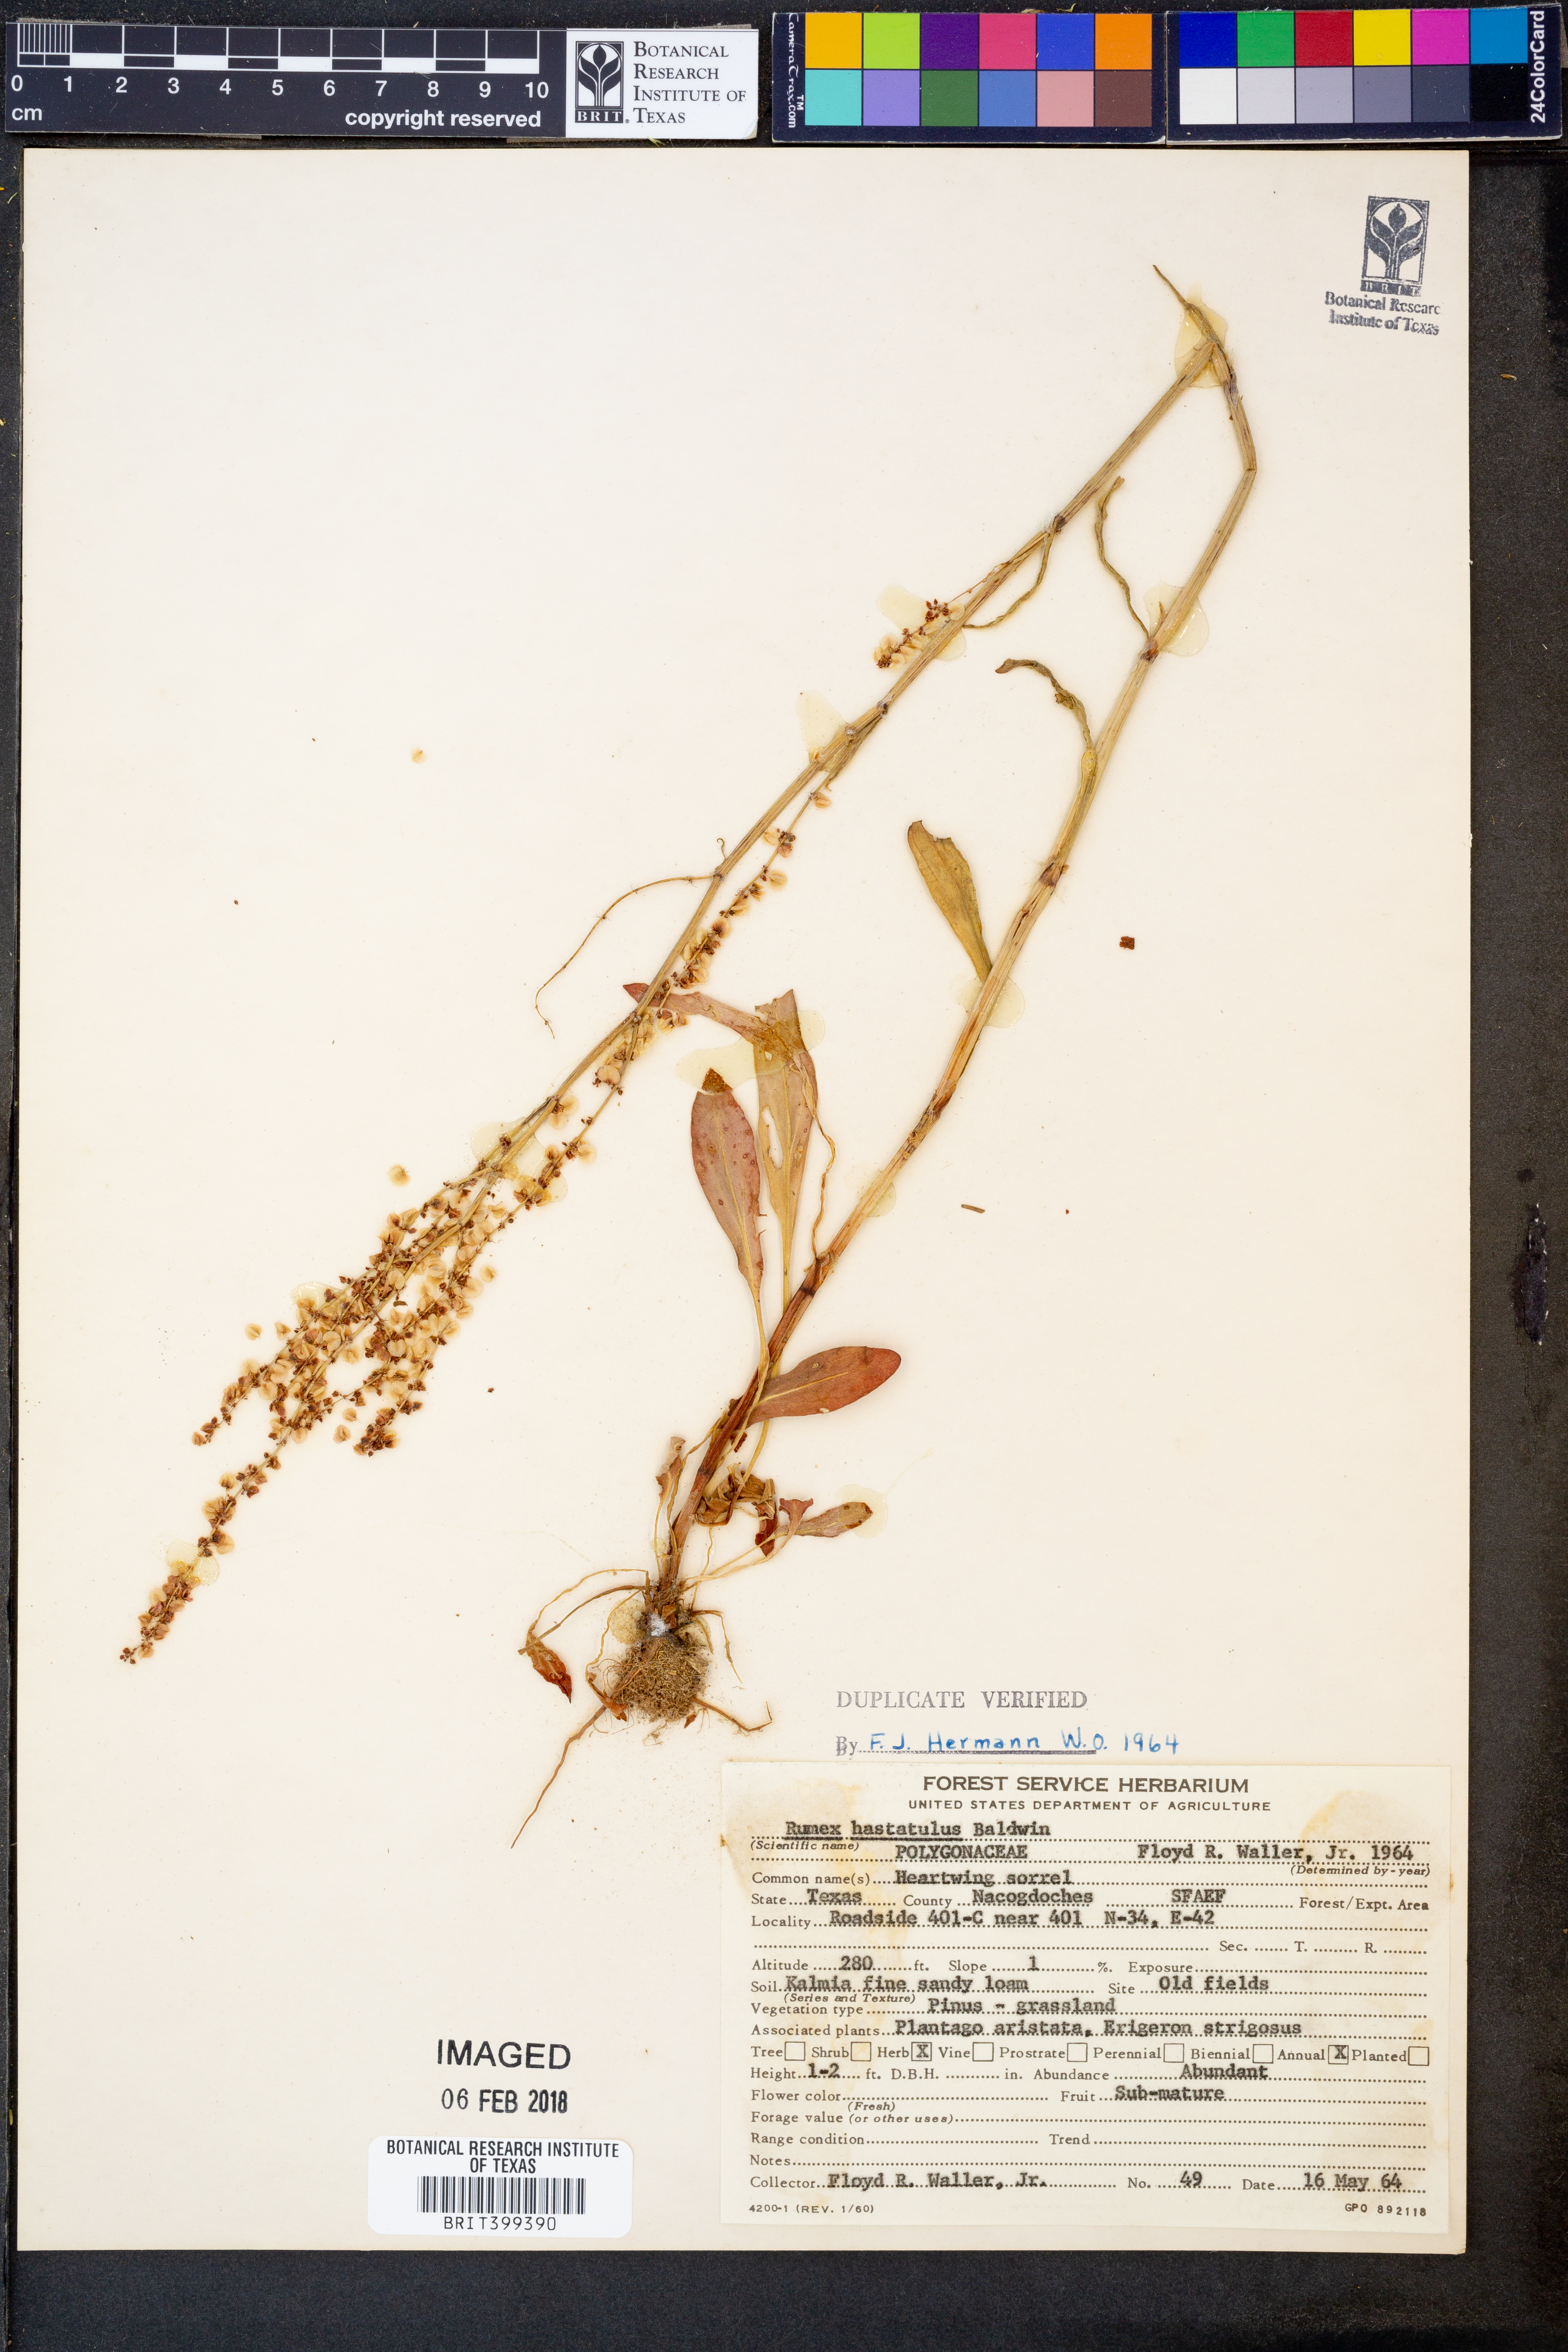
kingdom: Plantae
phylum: Tracheophyta
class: Magnoliopsida
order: Caryophyllales
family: Polygonaceae
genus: Rumex
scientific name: Rumex hastatulus
